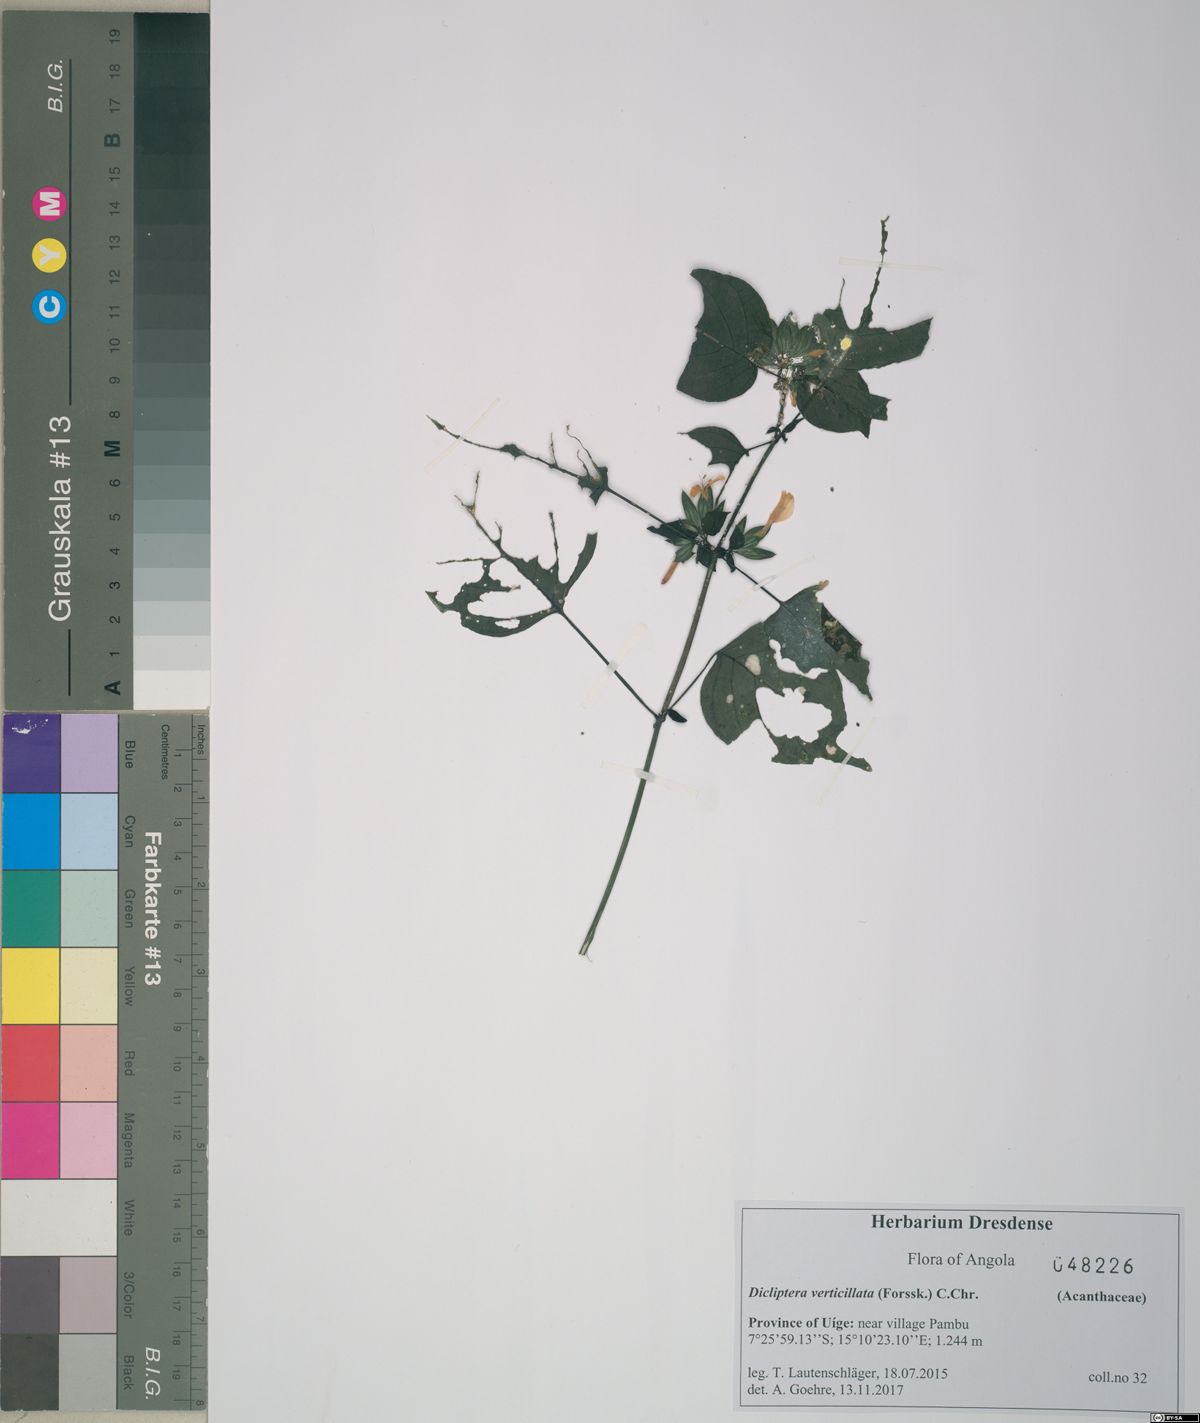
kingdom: Plantae
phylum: Tracheophyta
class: Magnoliopsida
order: Lamiales
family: Acanthaceae
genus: Dicliptera
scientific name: Dicliptera verticillata
